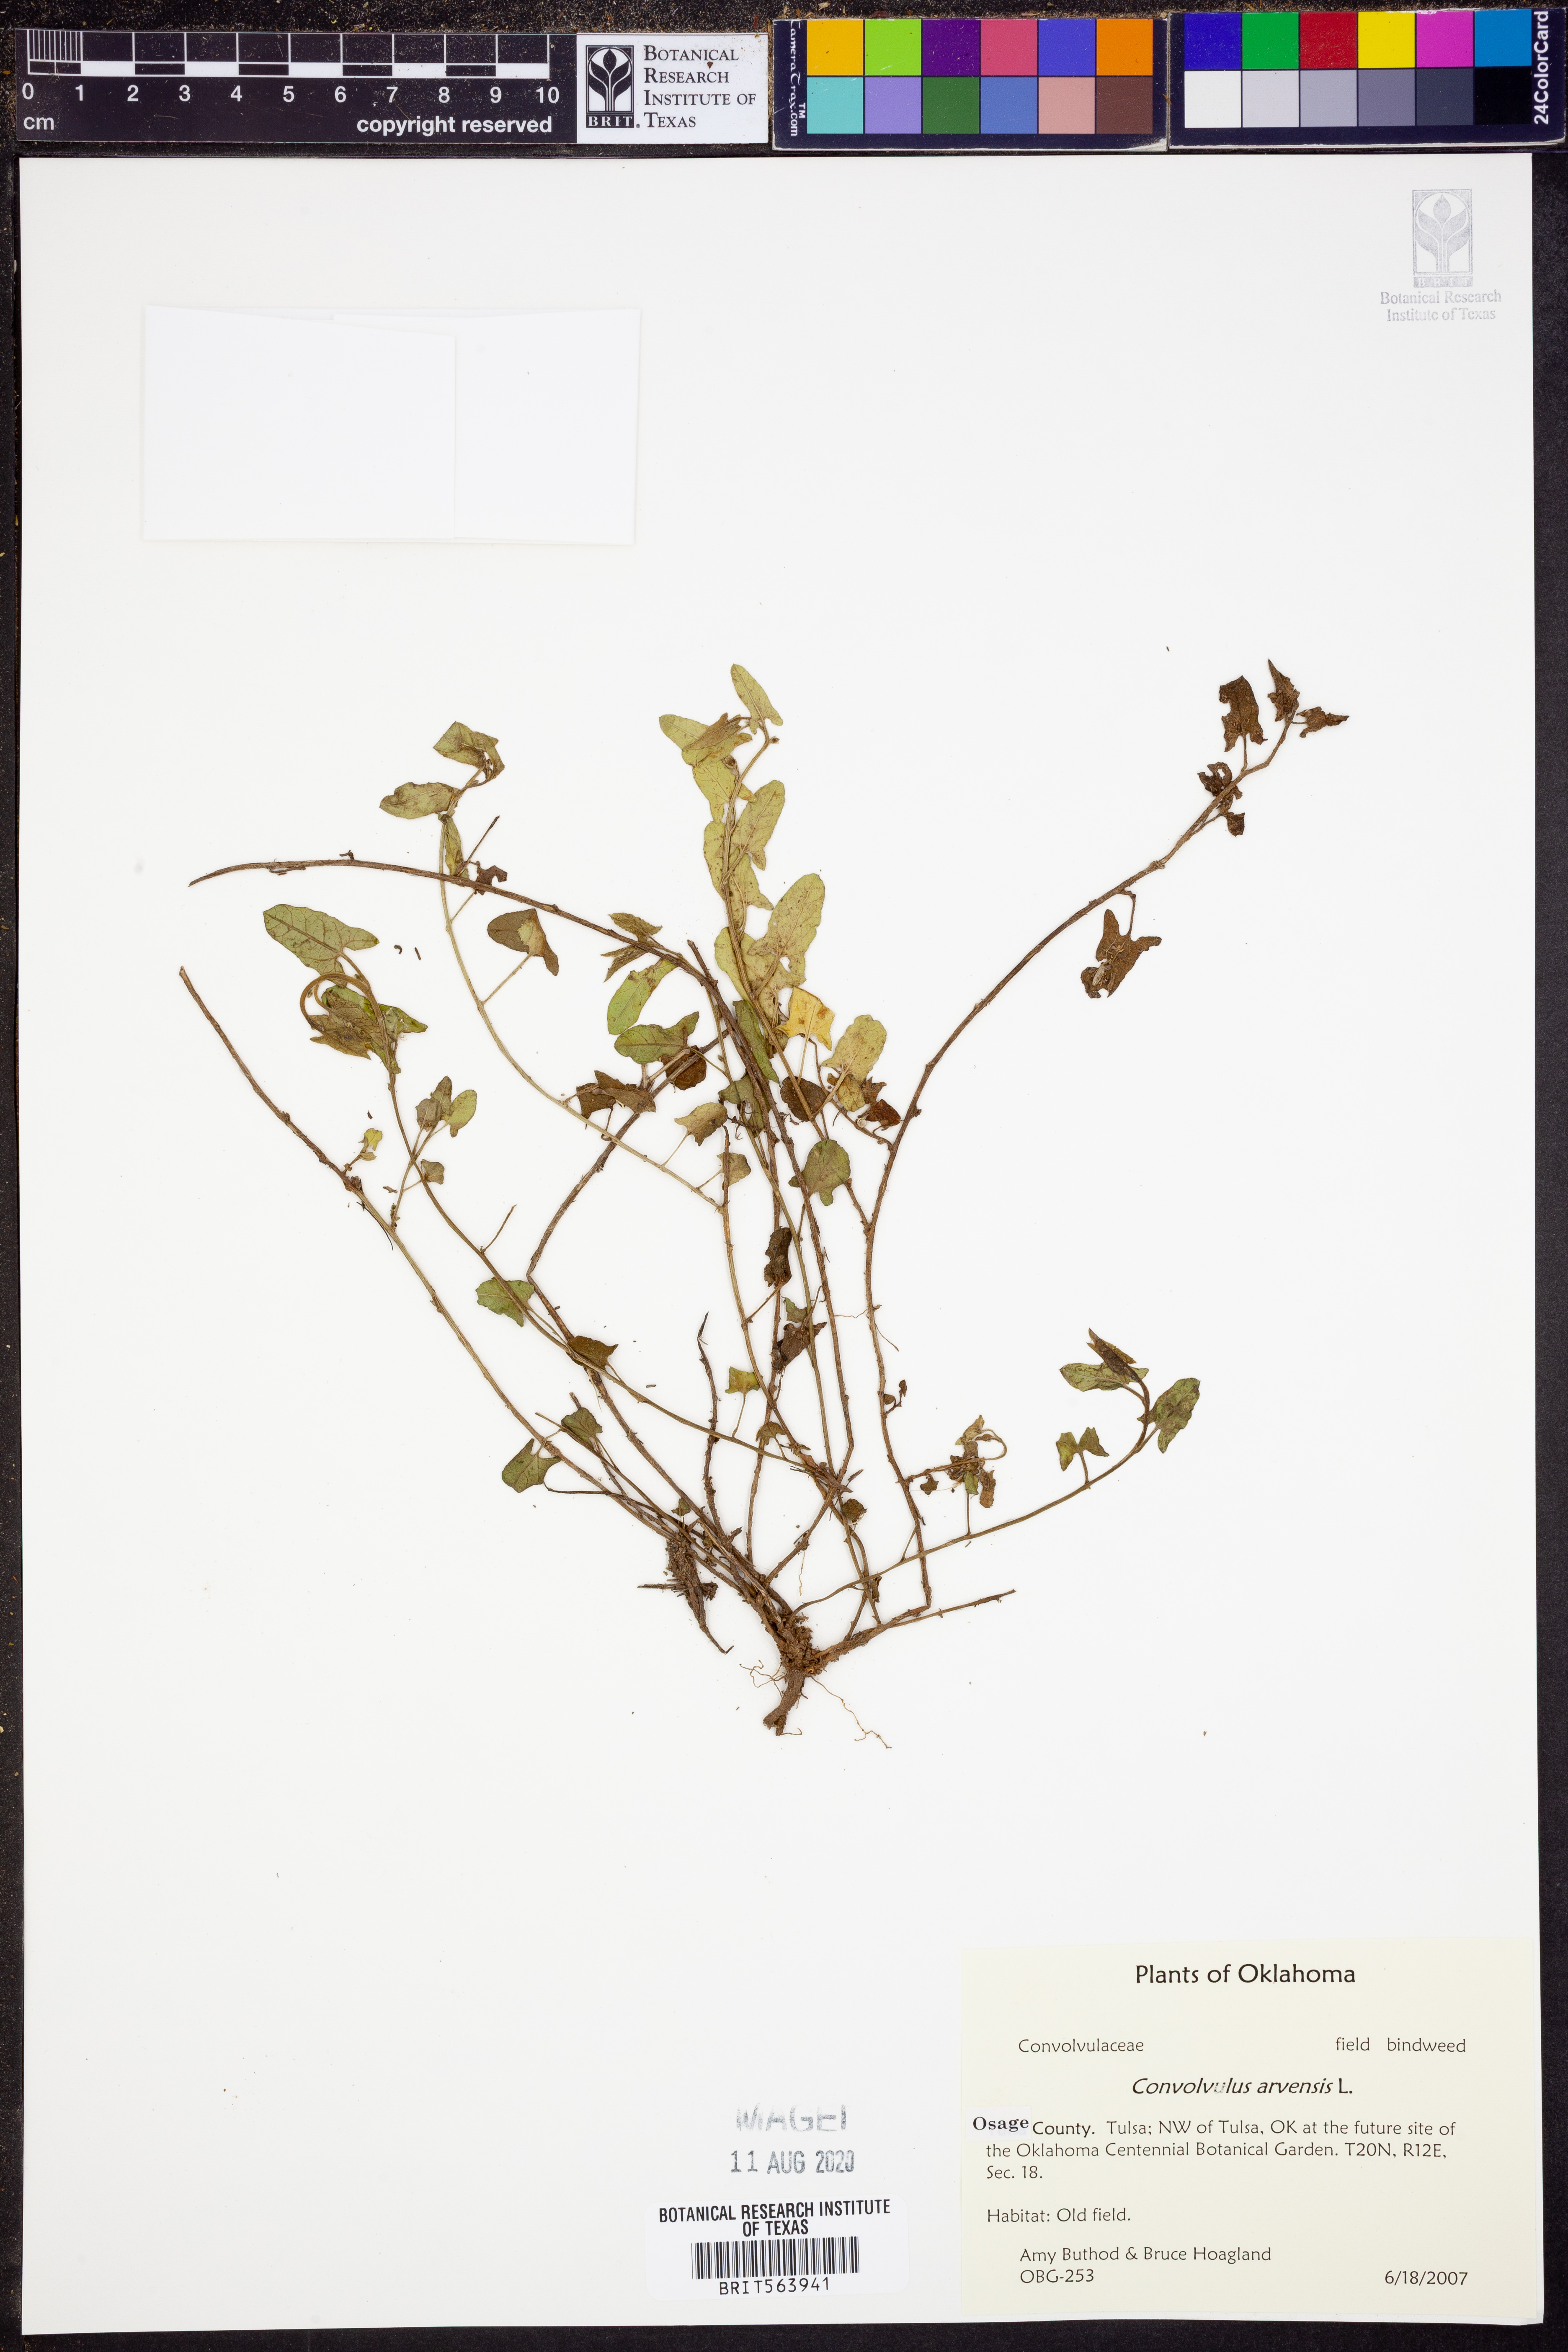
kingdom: Plantae
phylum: Tracheophyta
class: Magnoliopsida
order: Solanales
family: Convolvulaceae
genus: Convolvulus
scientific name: Convolvulus arvensis
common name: Field bindweed
